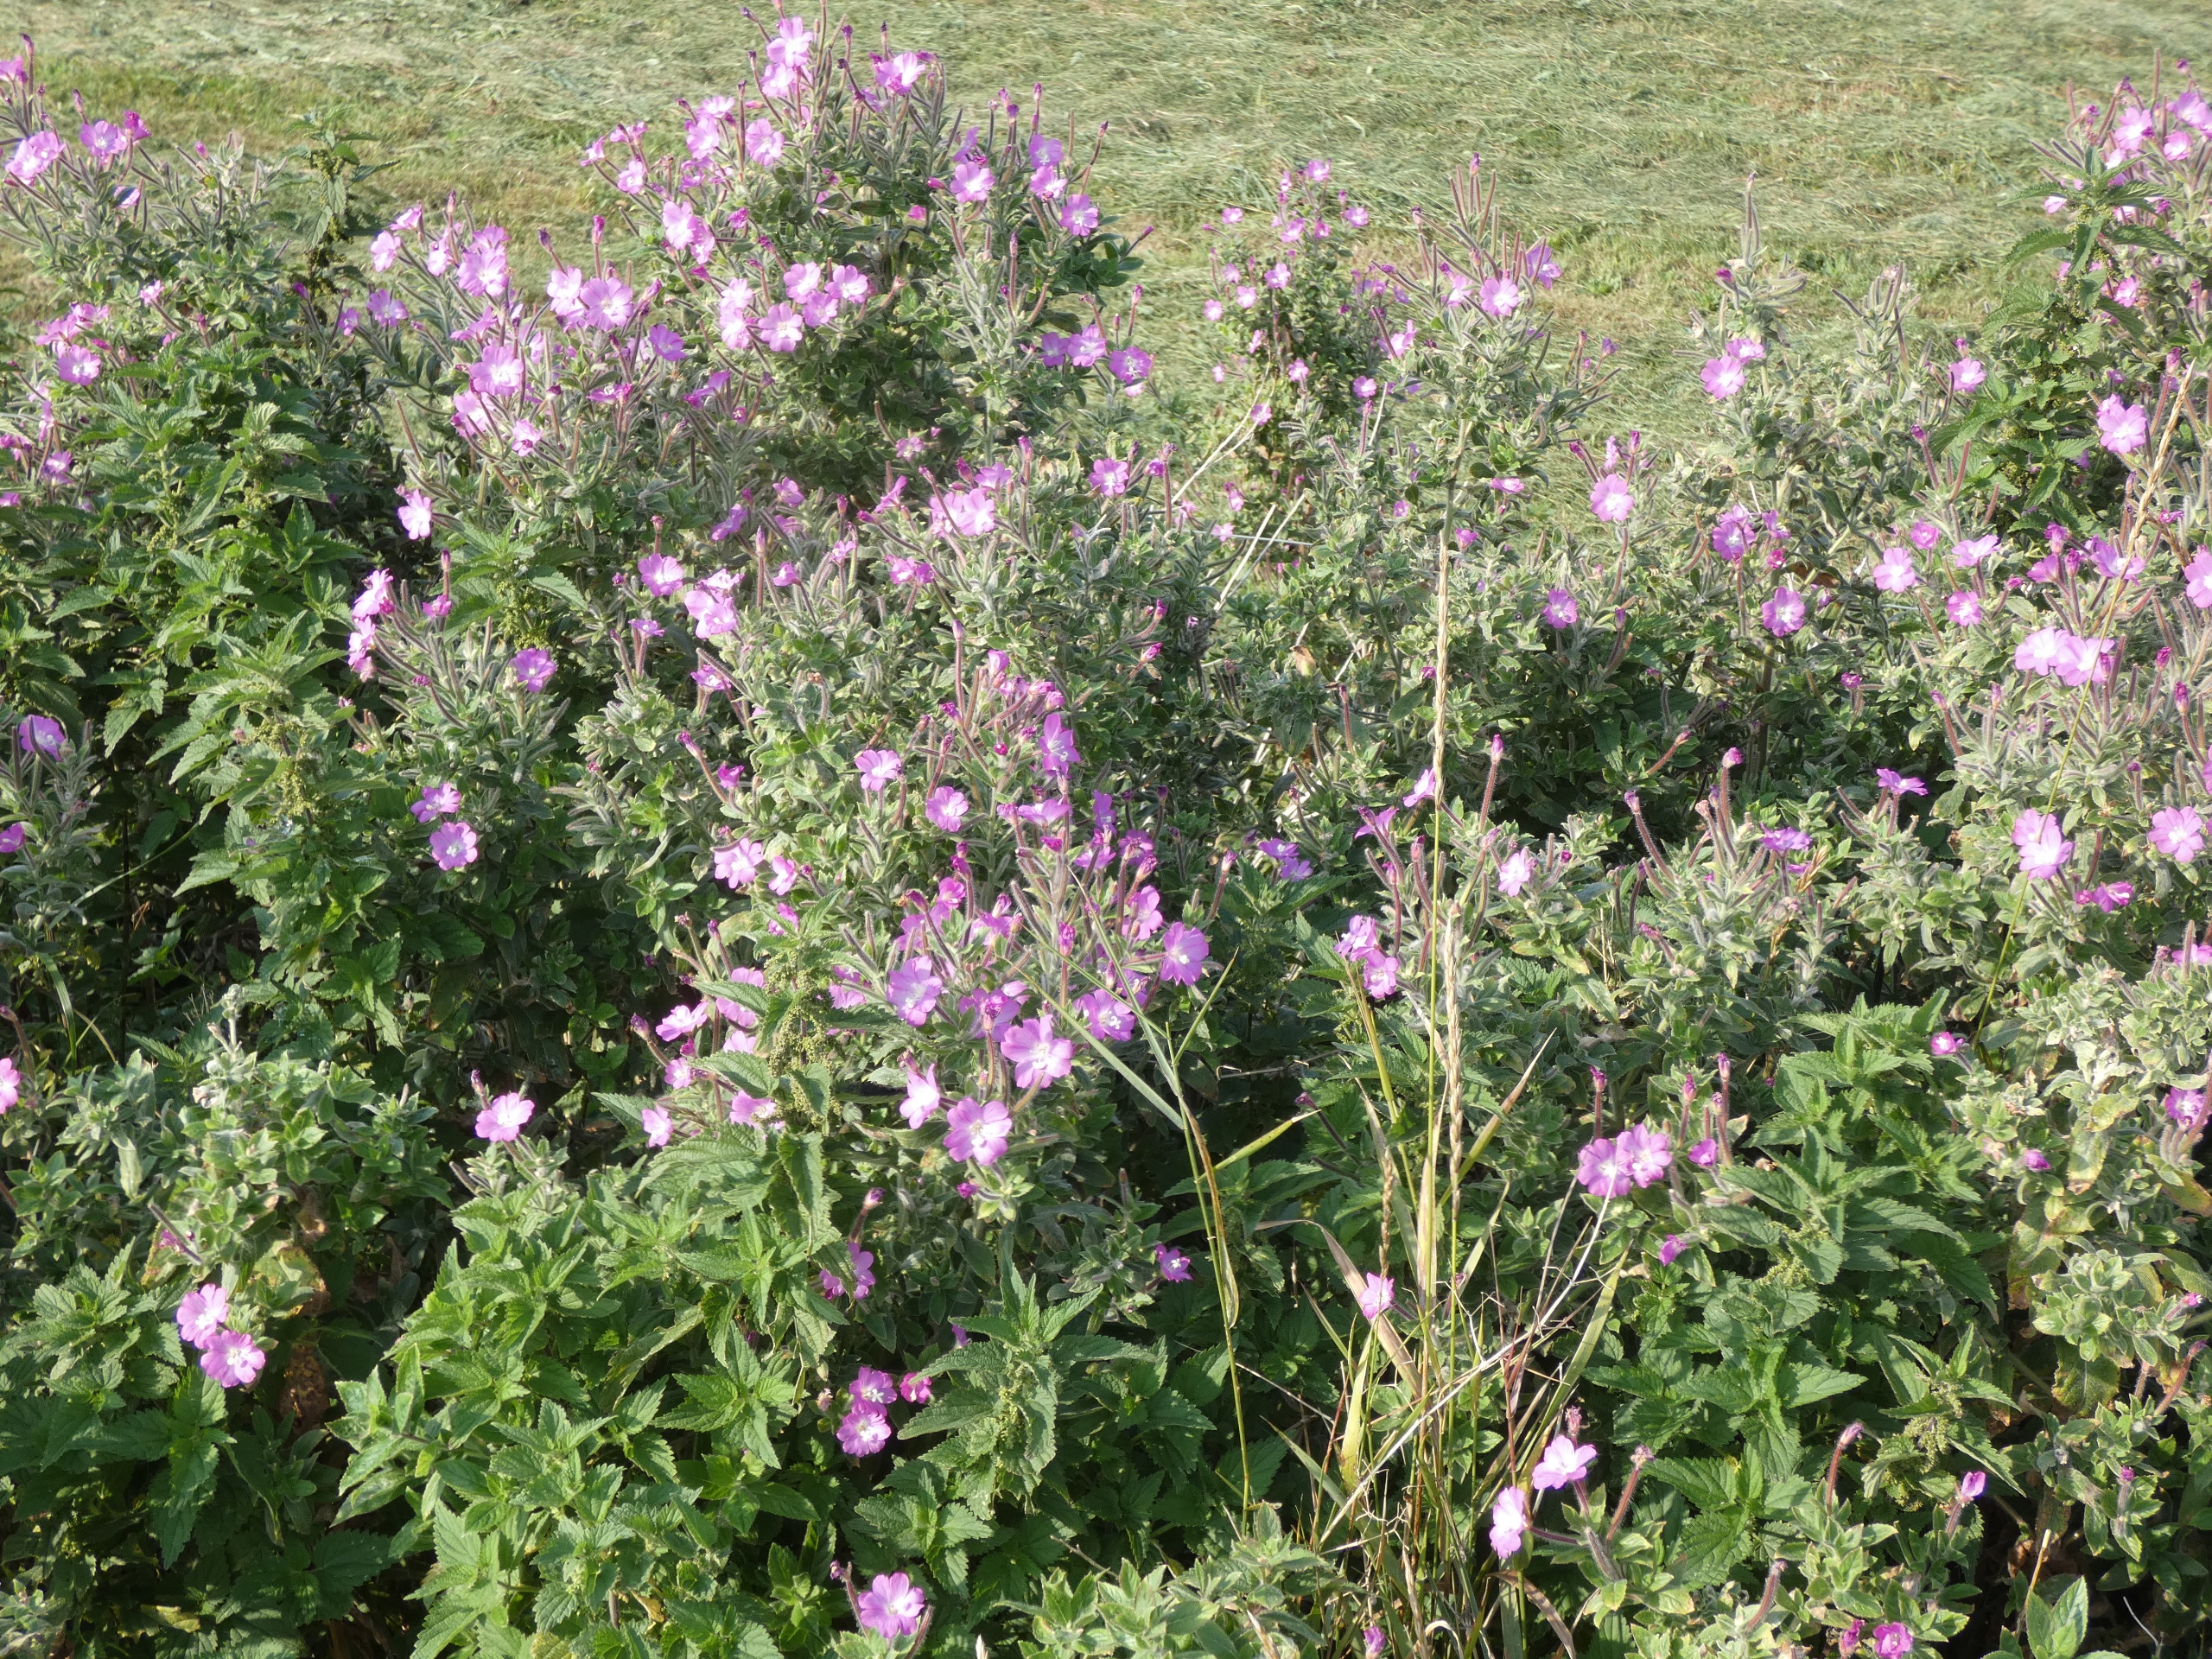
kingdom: Plantae
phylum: Tracheophyta
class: Magnoliopsida
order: Myrtales
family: Onagraceae
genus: Epilobium
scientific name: Epilobium hirsutum
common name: Lådden dueurt
